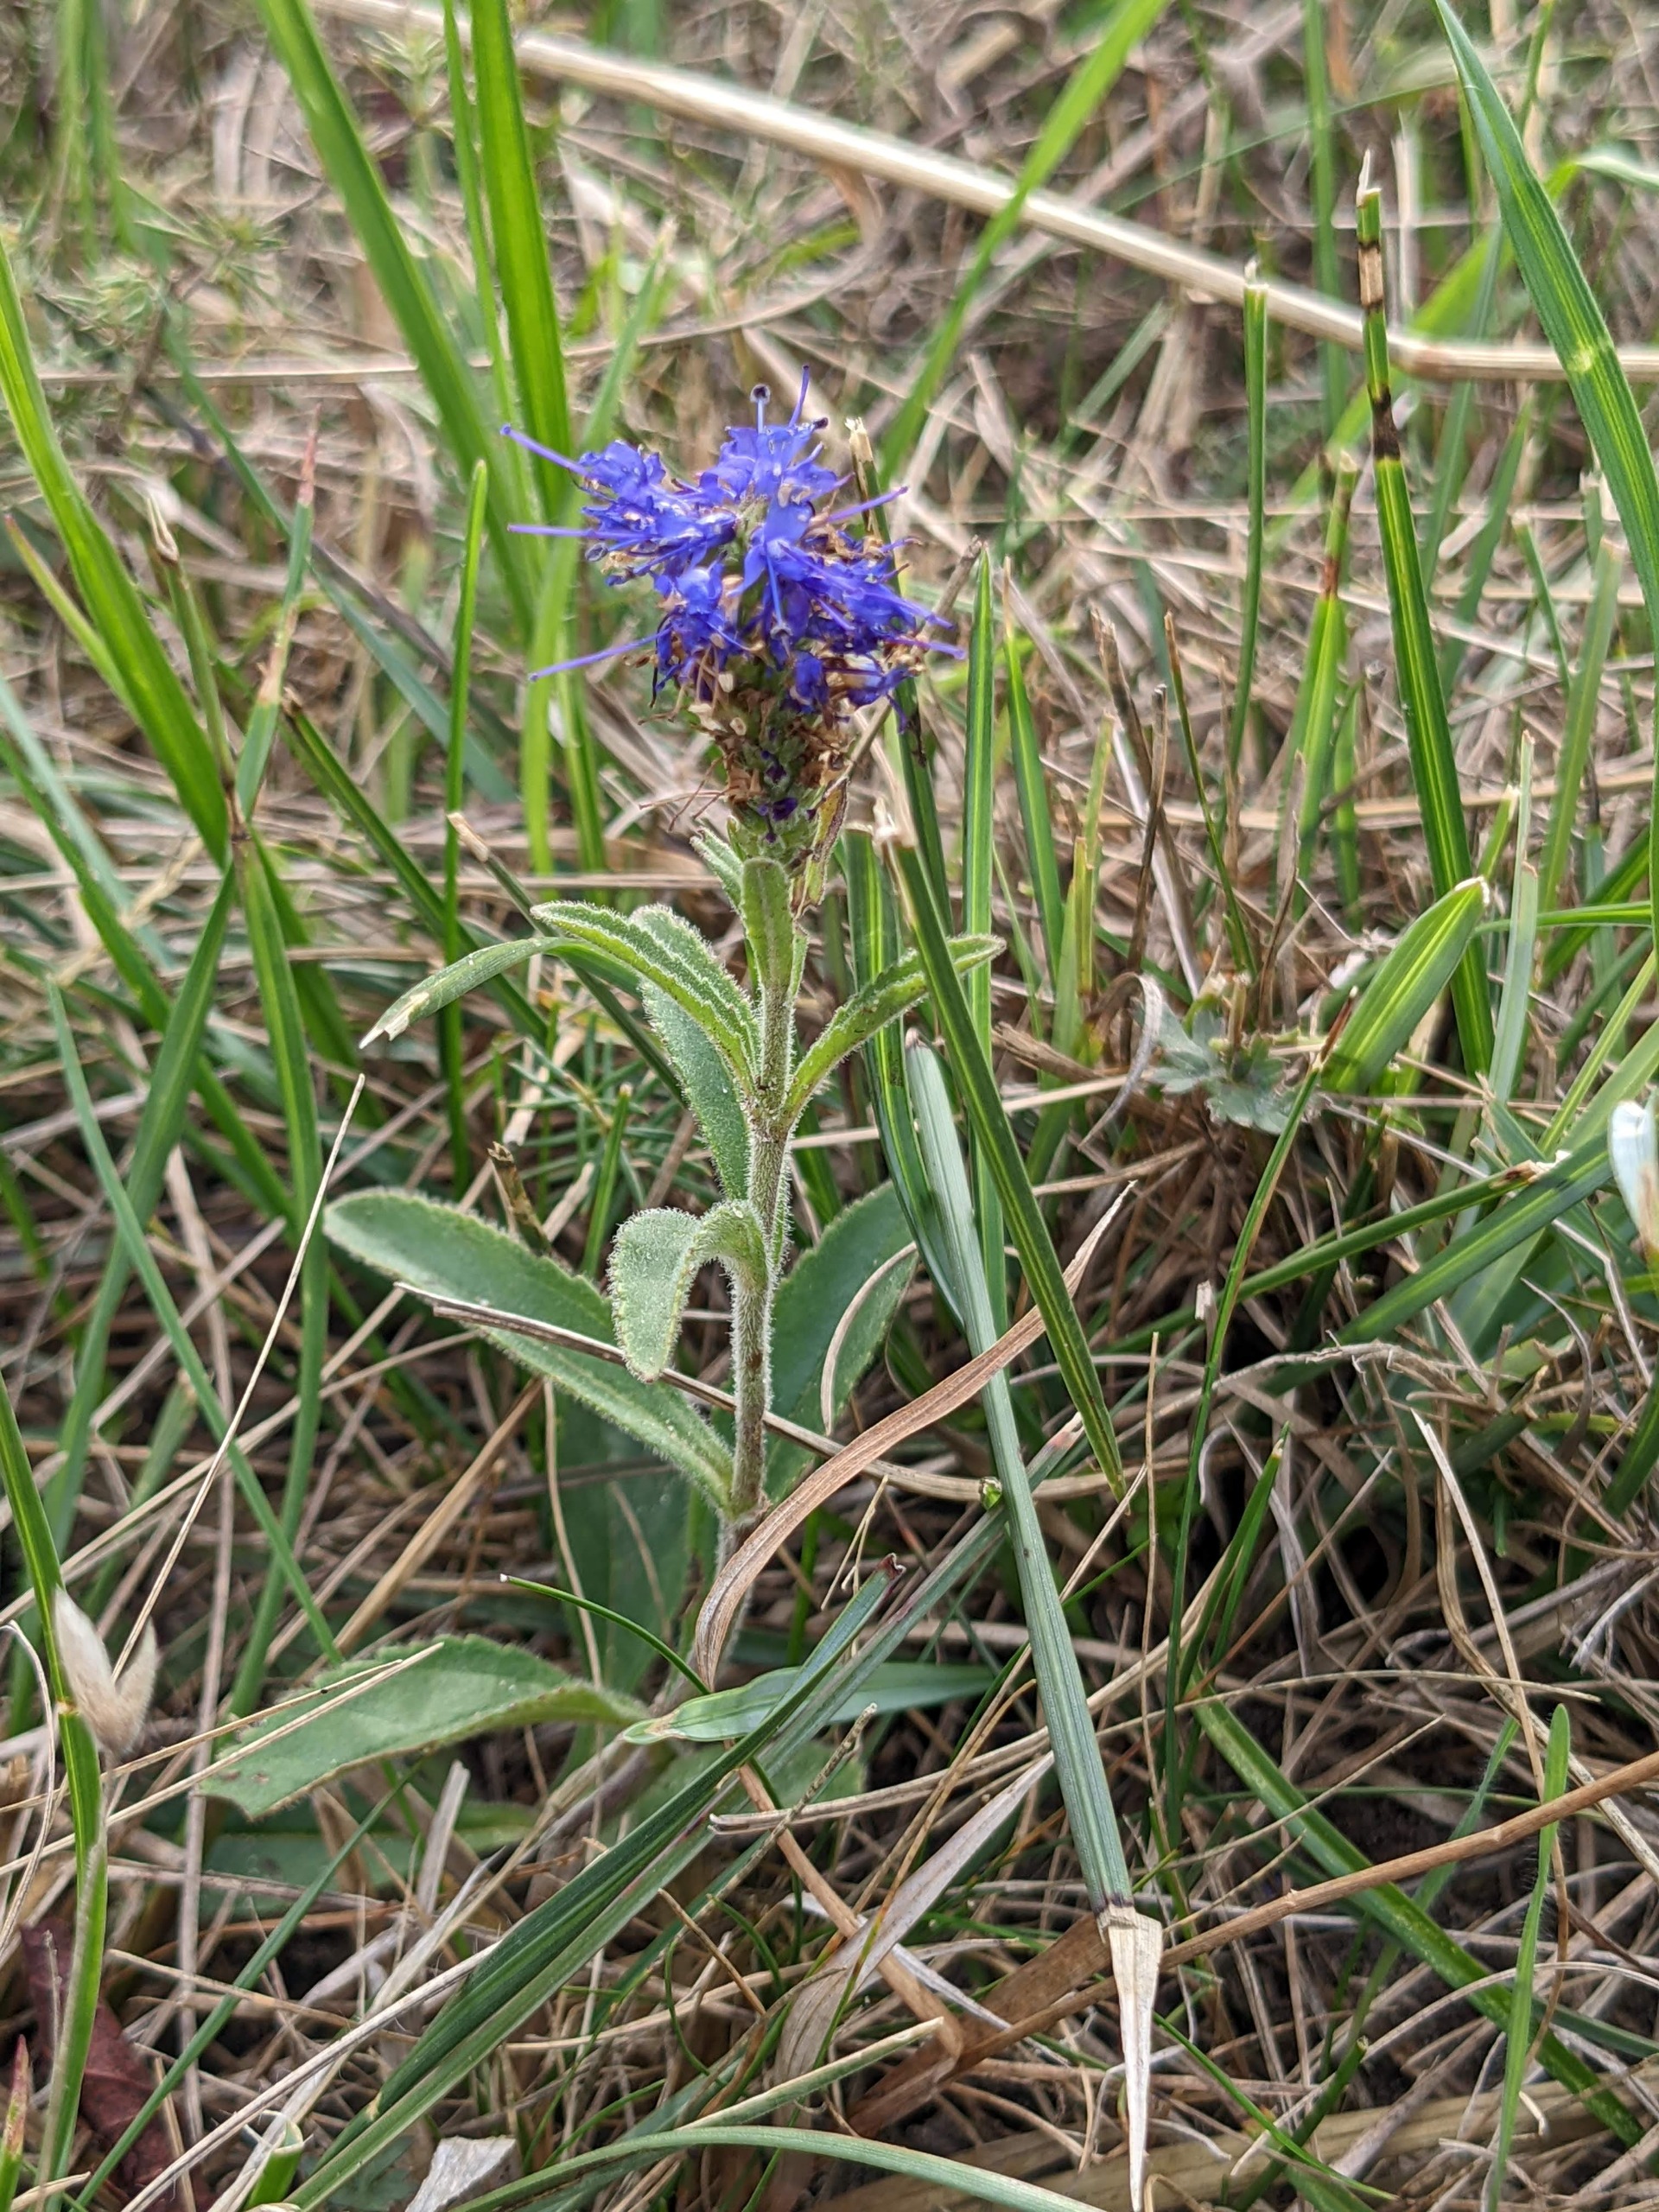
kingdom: Plantae
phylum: Tracheophyta
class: Magnoliopsida
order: Lamiales
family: Plantaginaceae
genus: Veronica
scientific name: Veronica spicata
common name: Aks-ærenpris
